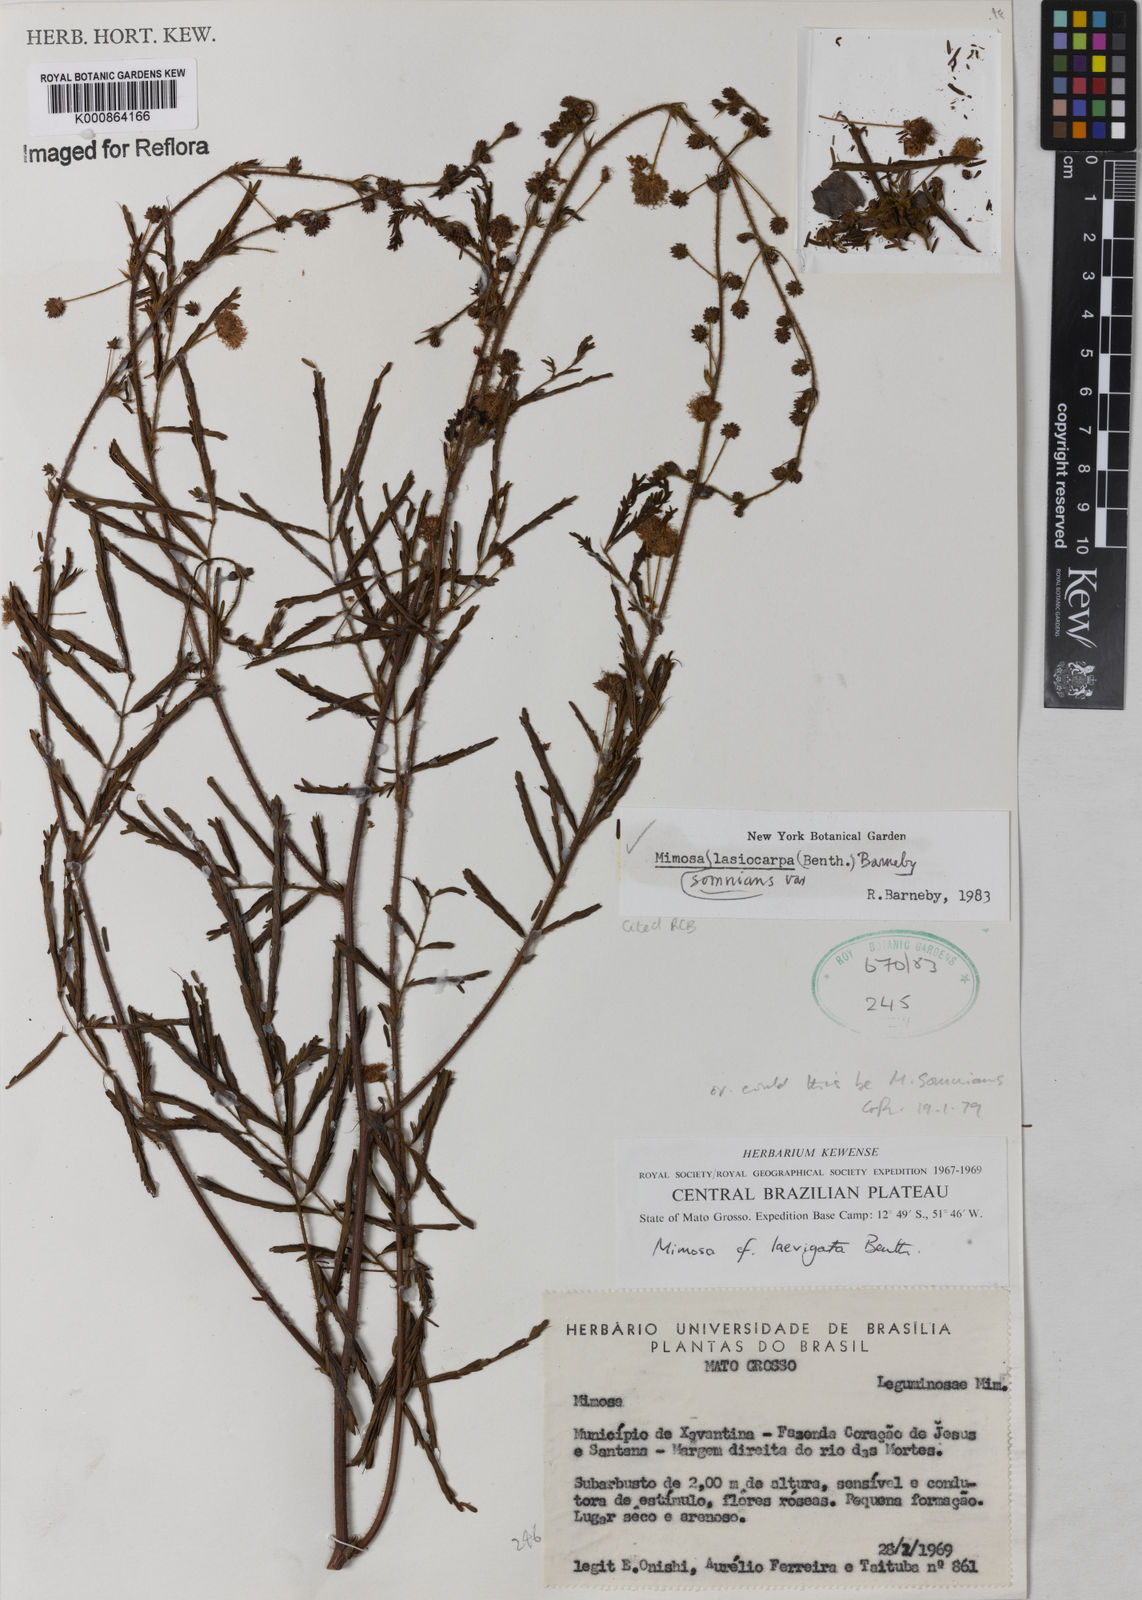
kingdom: Plantae
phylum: Tracheophyta
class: Magnoliopsida
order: Fabales
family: Fabaceae
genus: Mimosa
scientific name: Mimosa somnians
